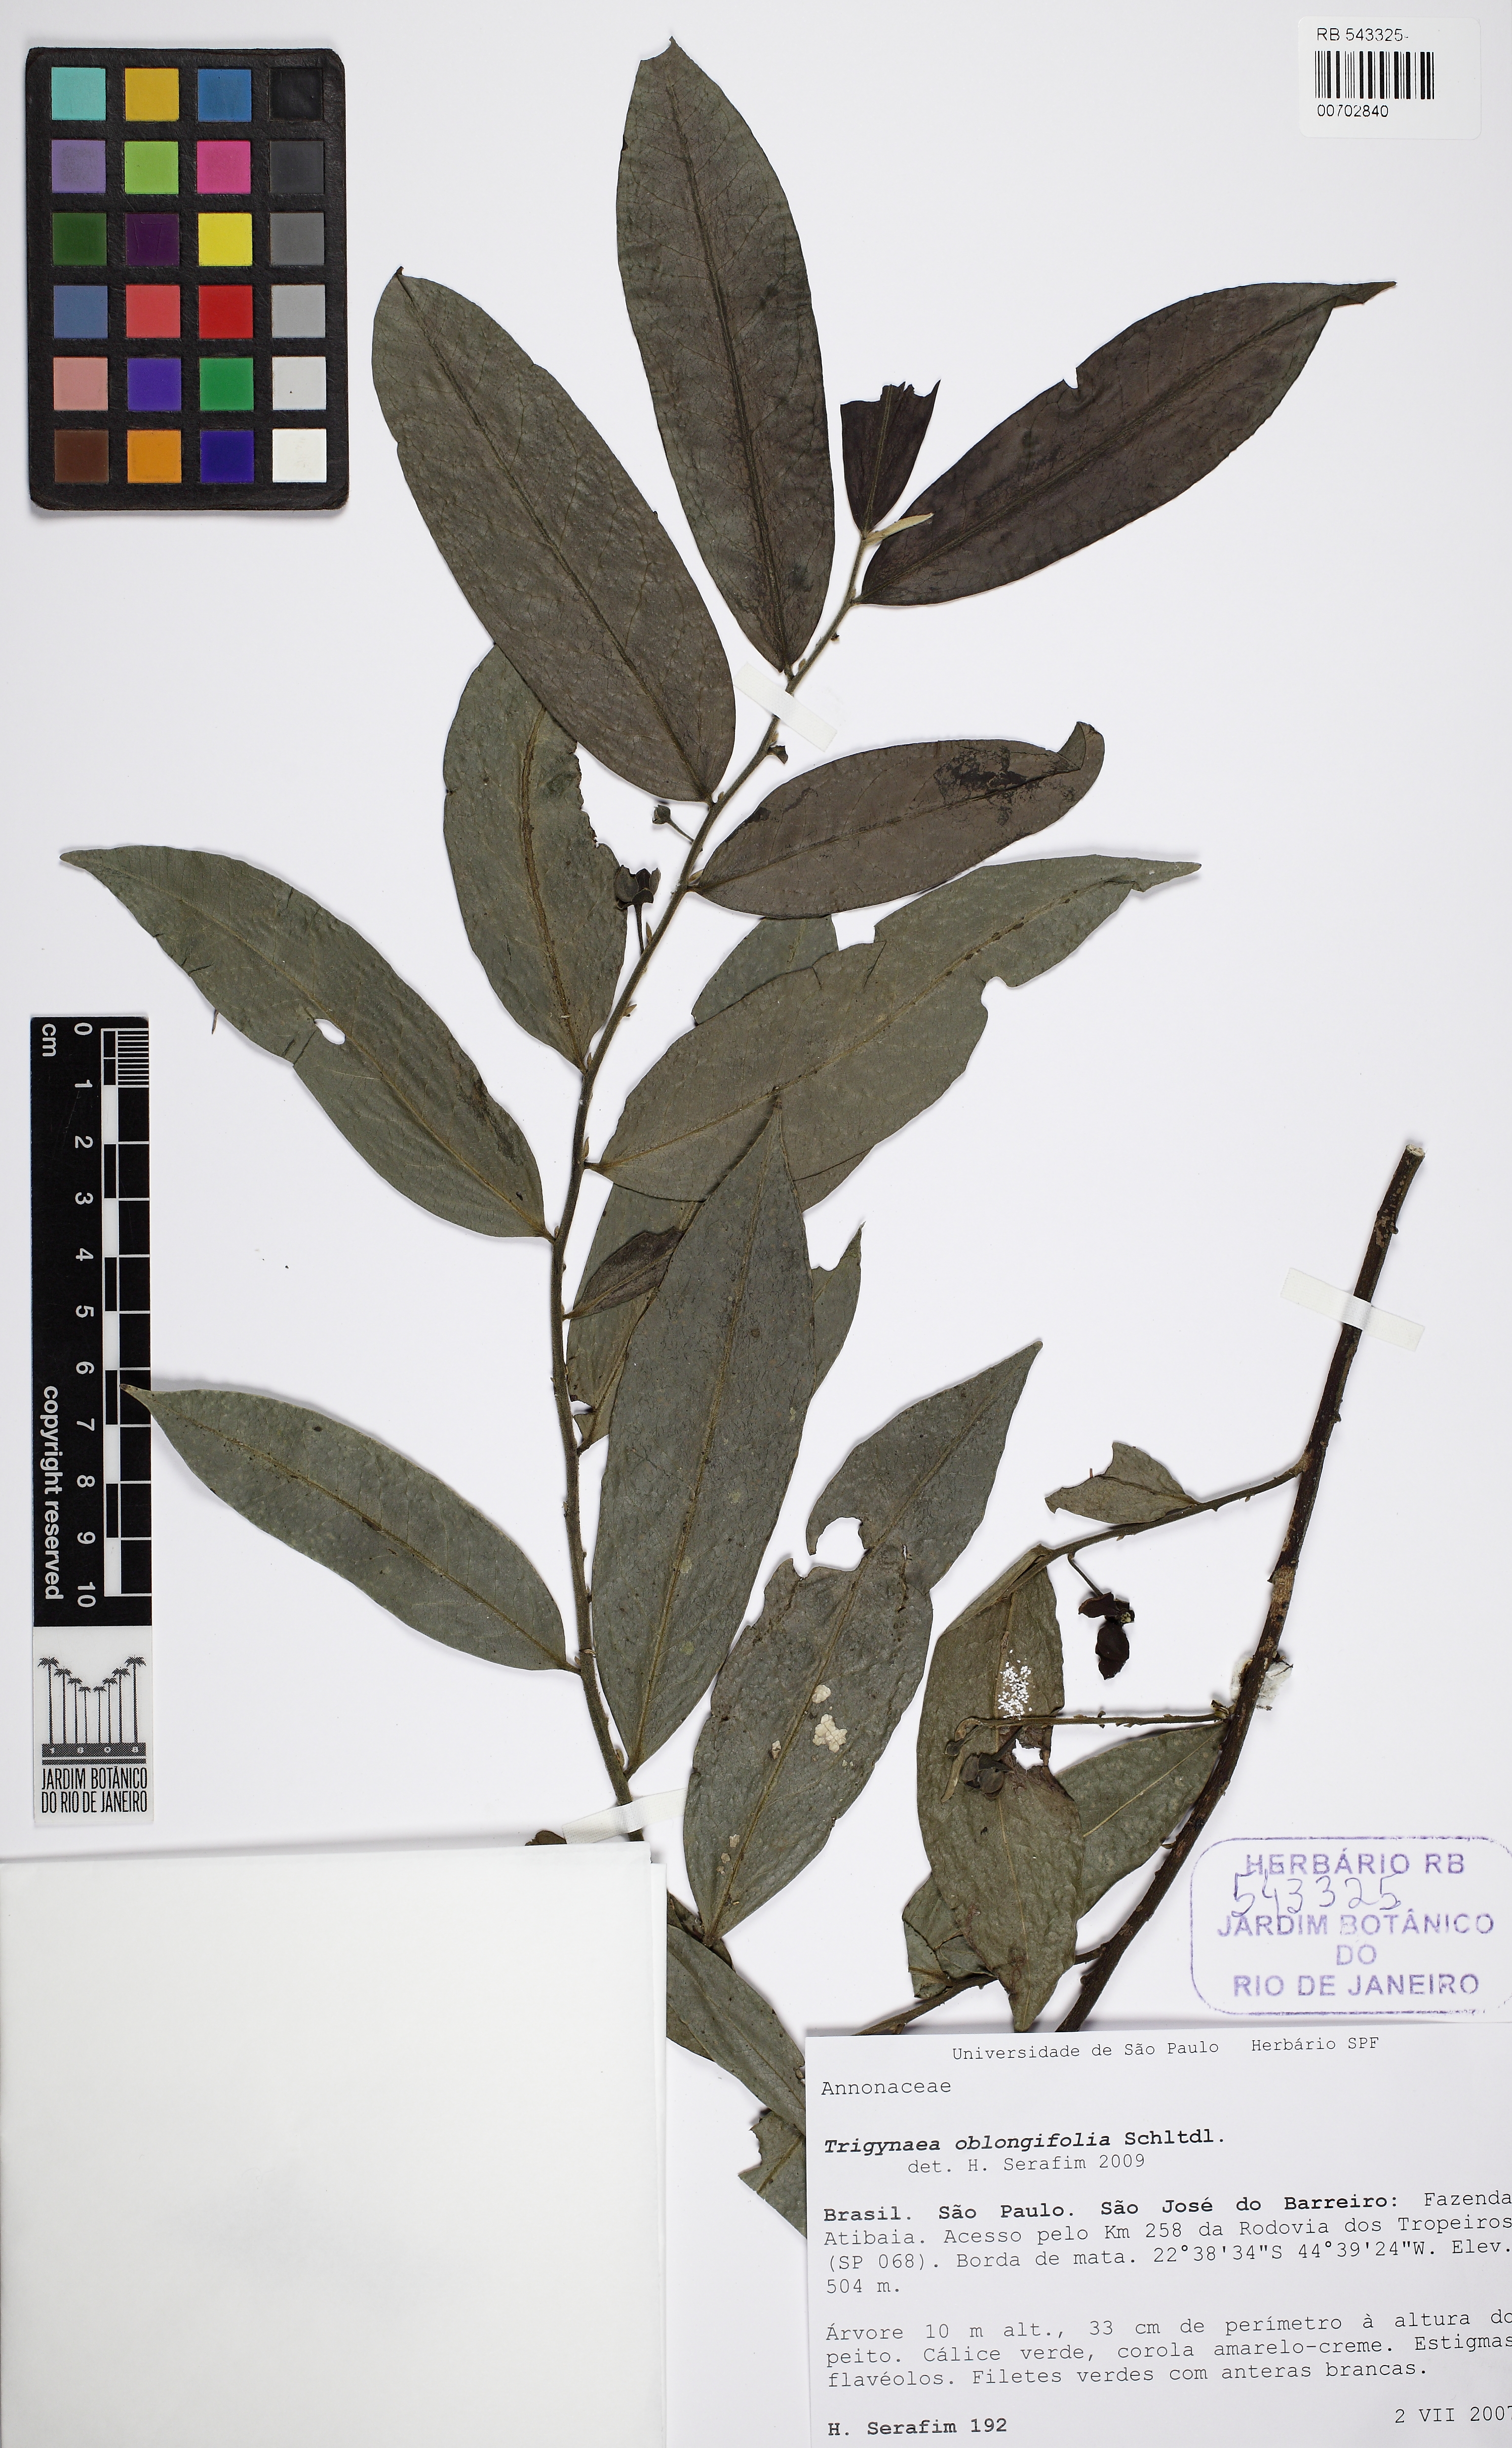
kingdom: Plantae
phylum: Tracheophyta
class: Magnoliopsida
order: Magnoliales
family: Annonaceae
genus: Trigynaea
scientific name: Trigynaea oblongifolia
